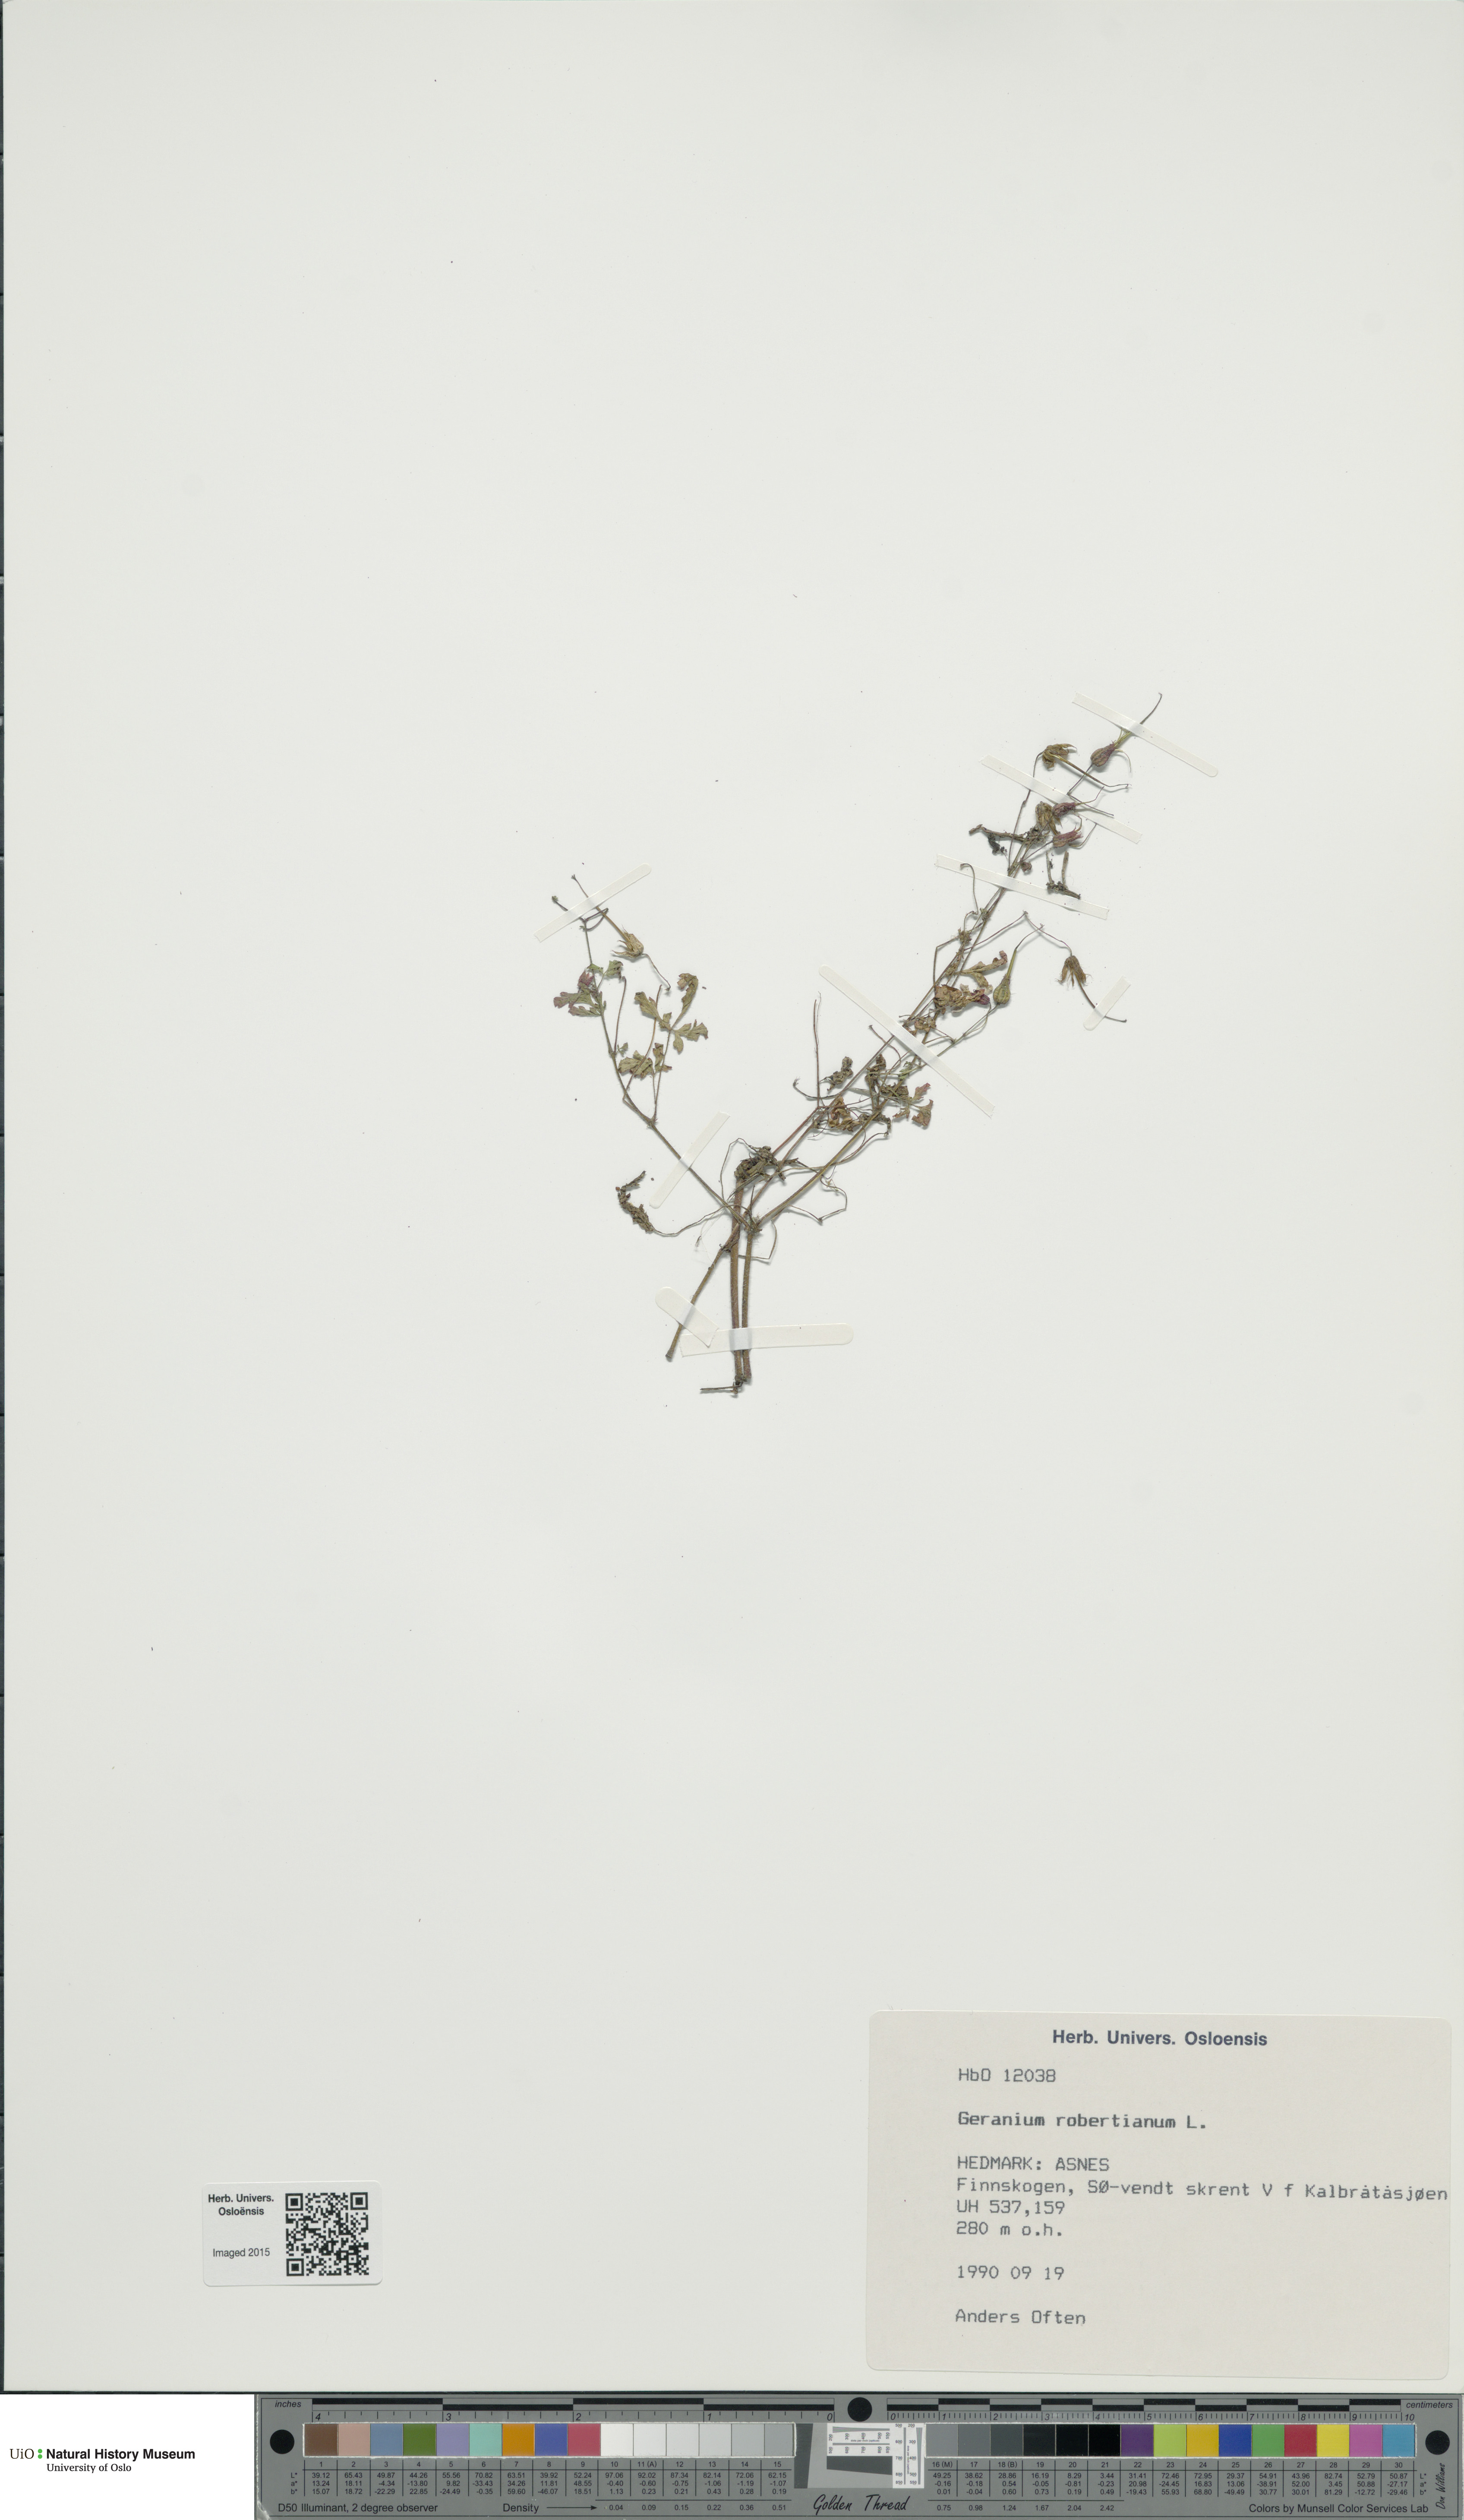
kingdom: Plantae
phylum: Tracheophyta
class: Magnoliopsida
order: Geraniales
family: Geraniaceae
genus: Geranium
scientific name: Geranium robertianum
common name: Herb-robert
